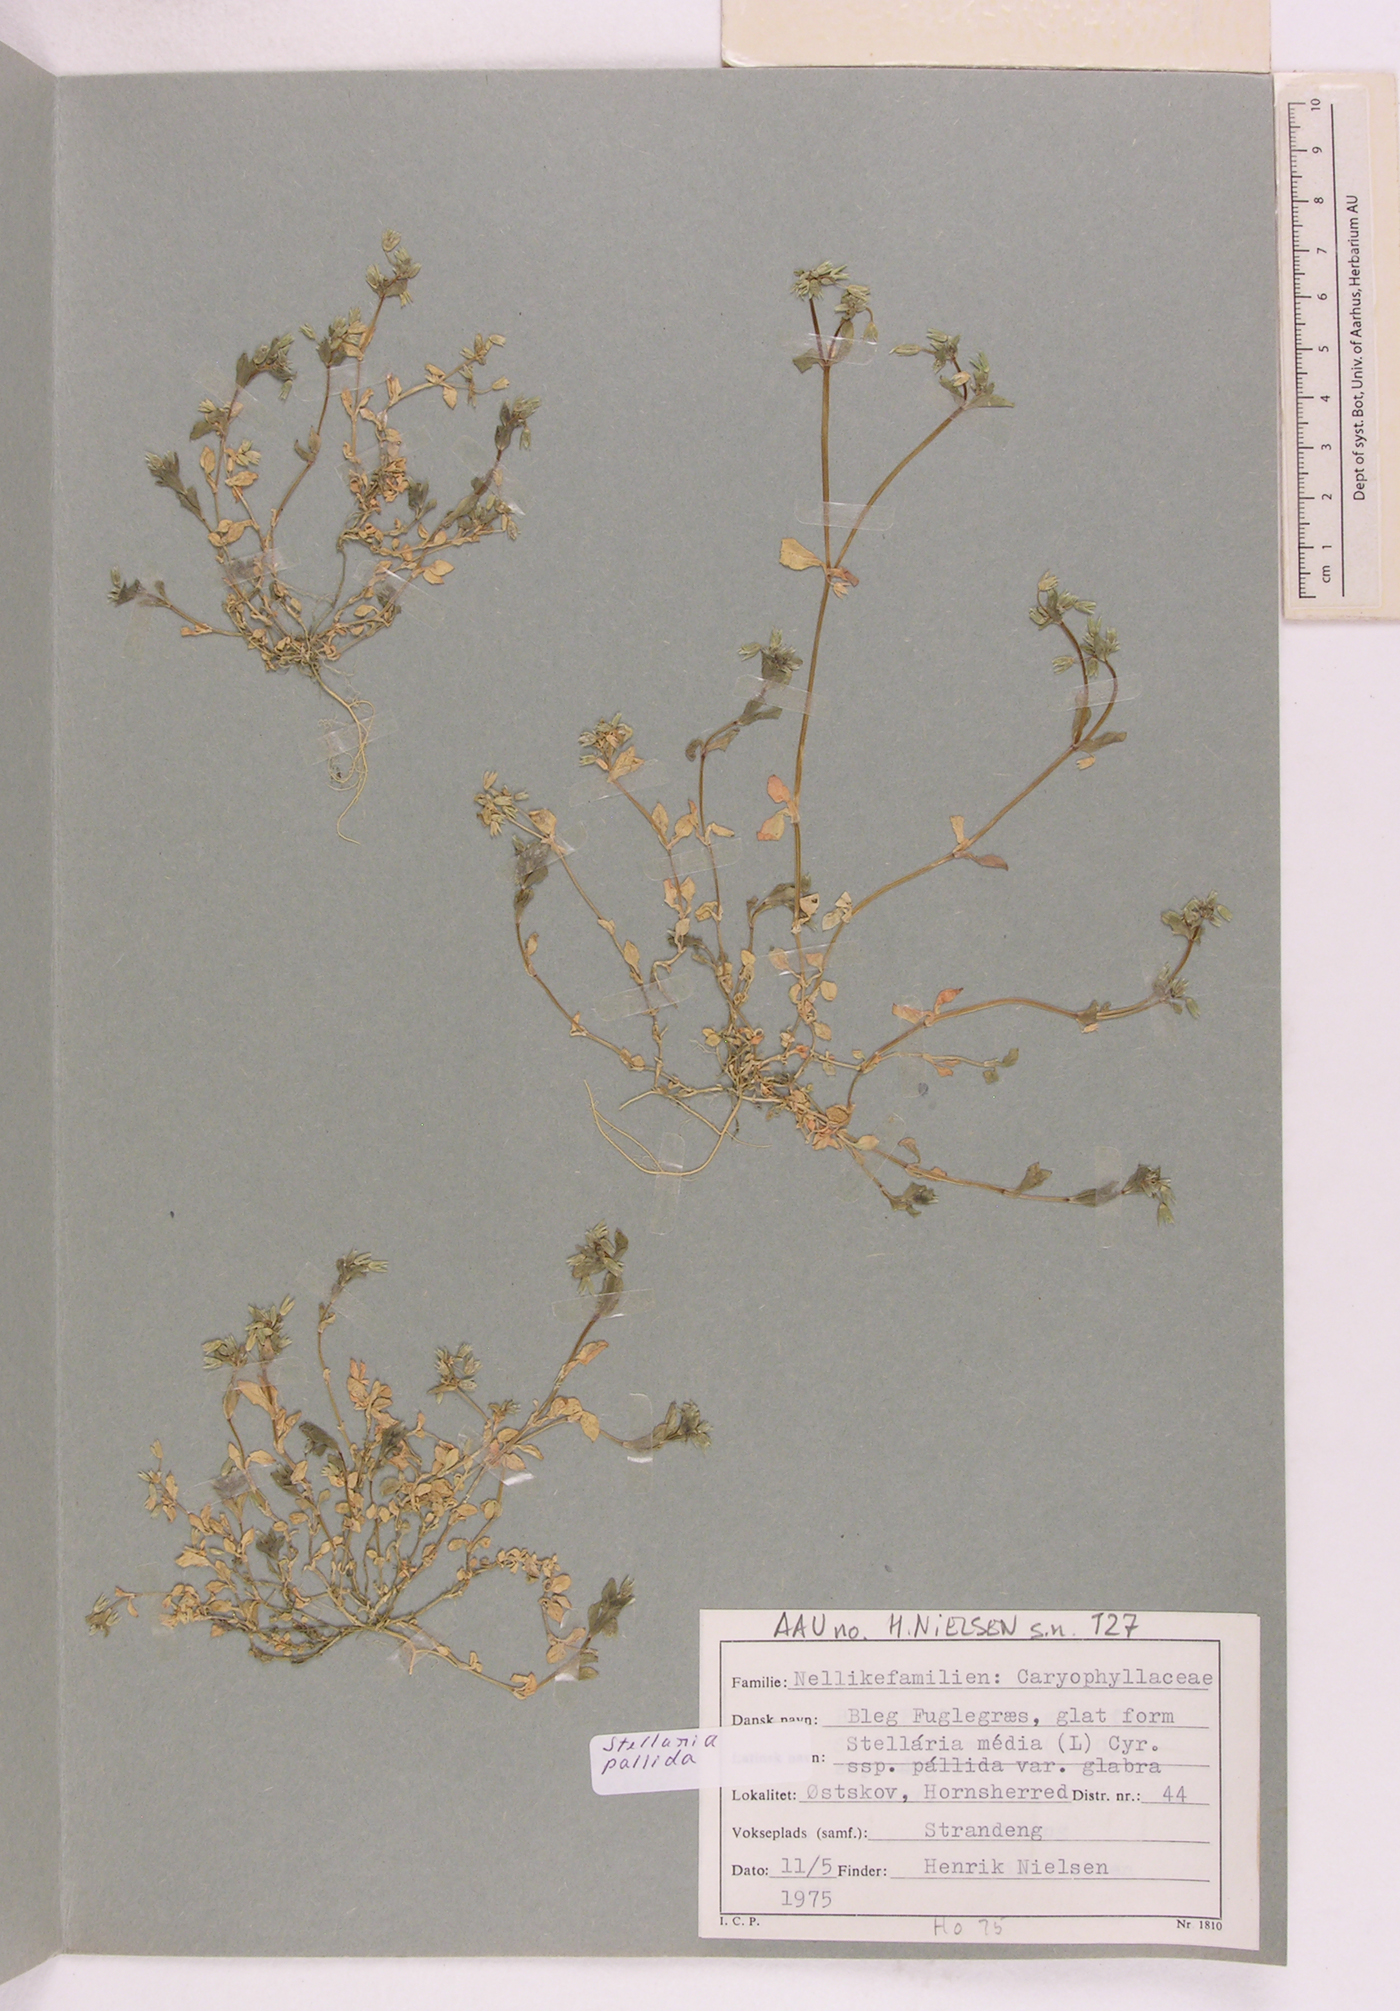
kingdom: Plantae
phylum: Tracheophyta
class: Magnoliopsida
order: Caryophyllales
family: Caryophyllaceae
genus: Stellaria
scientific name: Stellaria apetala
